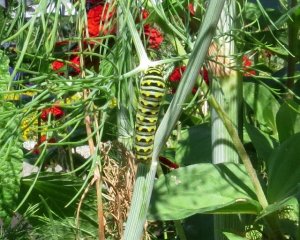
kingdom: Animalia
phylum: Arthropoda
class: Insecta
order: Lepidoptera
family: Papilionidae
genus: Papilio
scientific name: Papilio polyxenes
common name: Black Swallowtail
